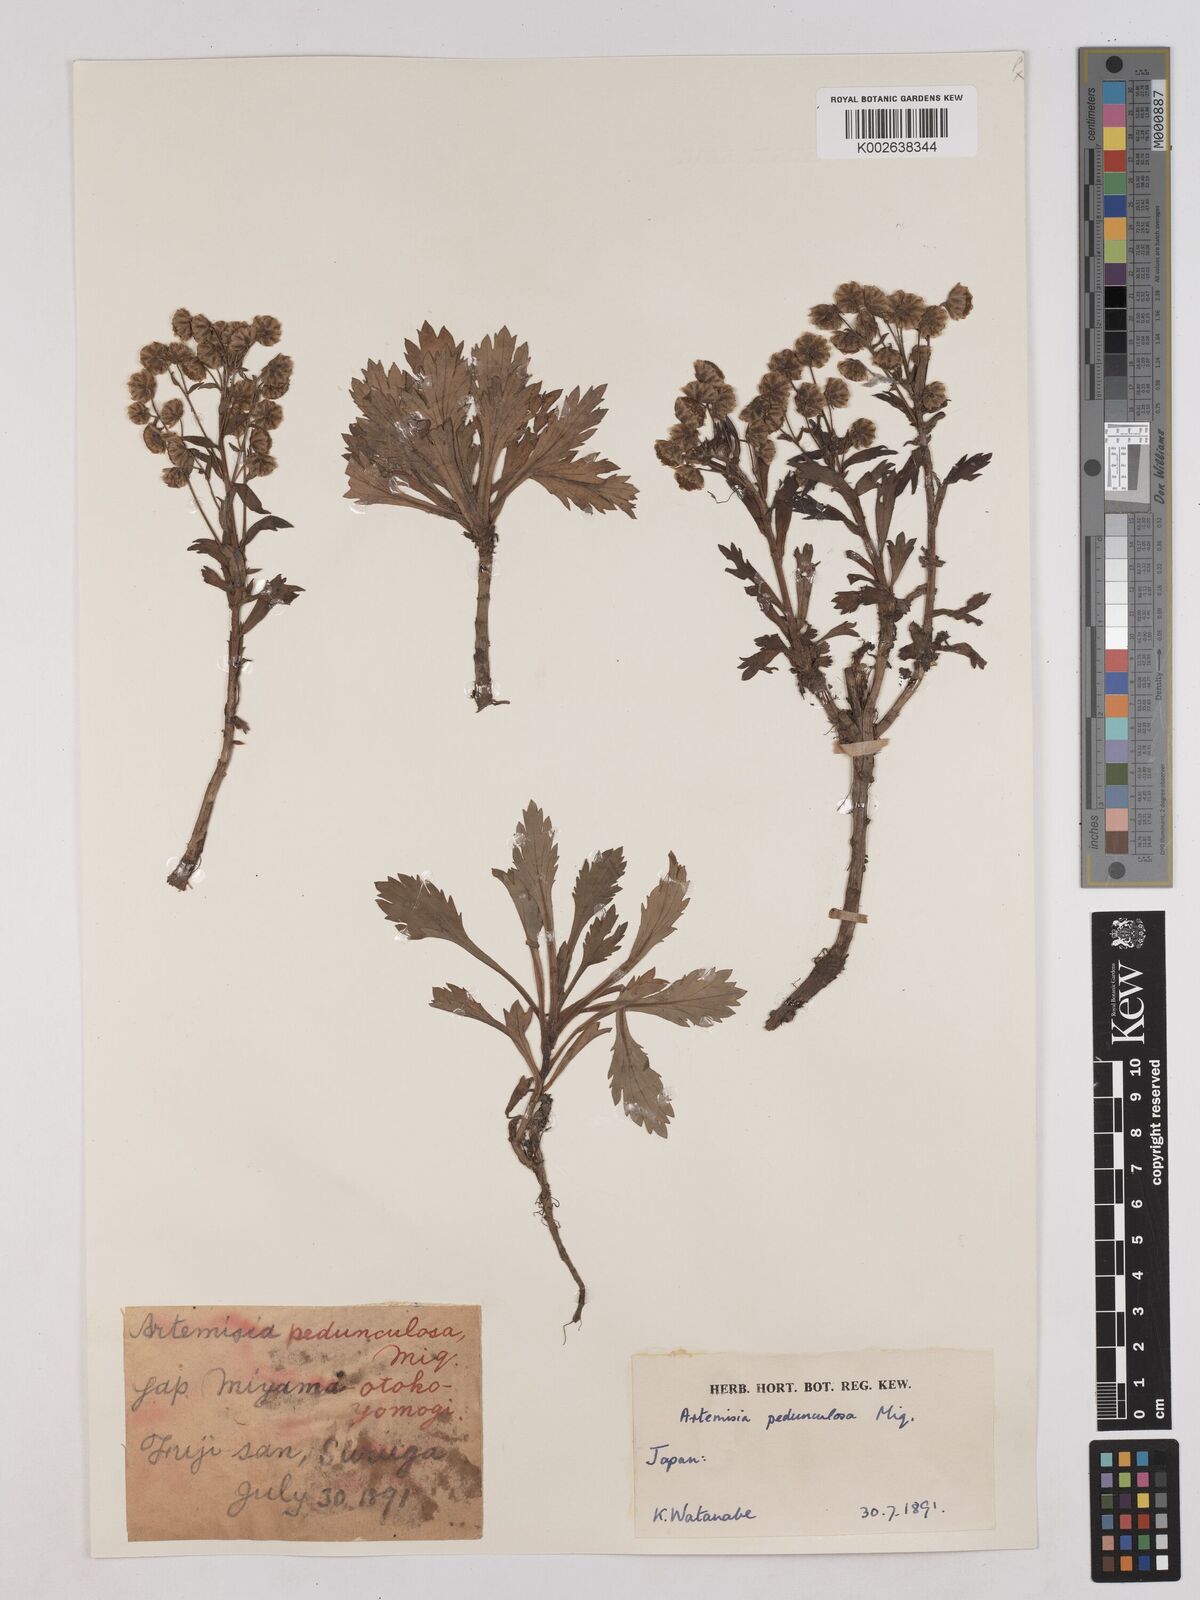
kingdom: Plantae
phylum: Tracheophyta
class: Magnoliopsida
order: Asterales
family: Asteraceae
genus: Artemisia
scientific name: Artemisia pedunculosa
